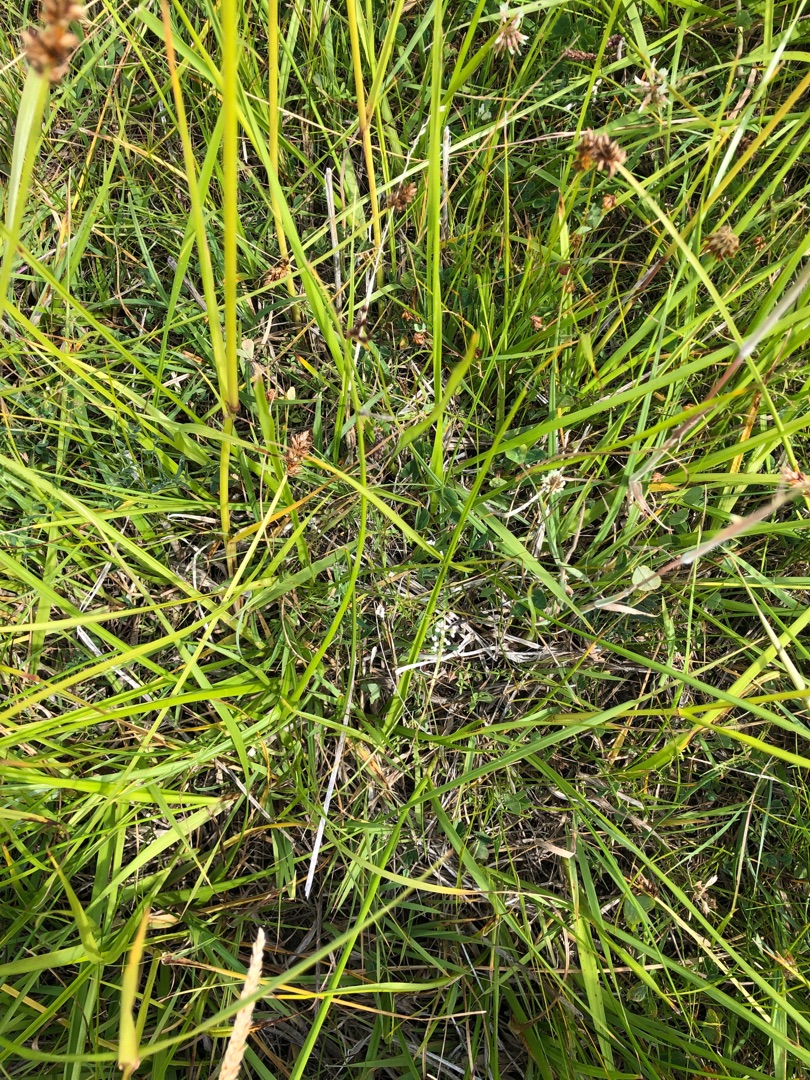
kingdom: Plantae
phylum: Tracheophyta
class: Magnoliopsida
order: Gentianales
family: Rubiaceae
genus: Galium
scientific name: Galium palustre
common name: Kær-snerre
